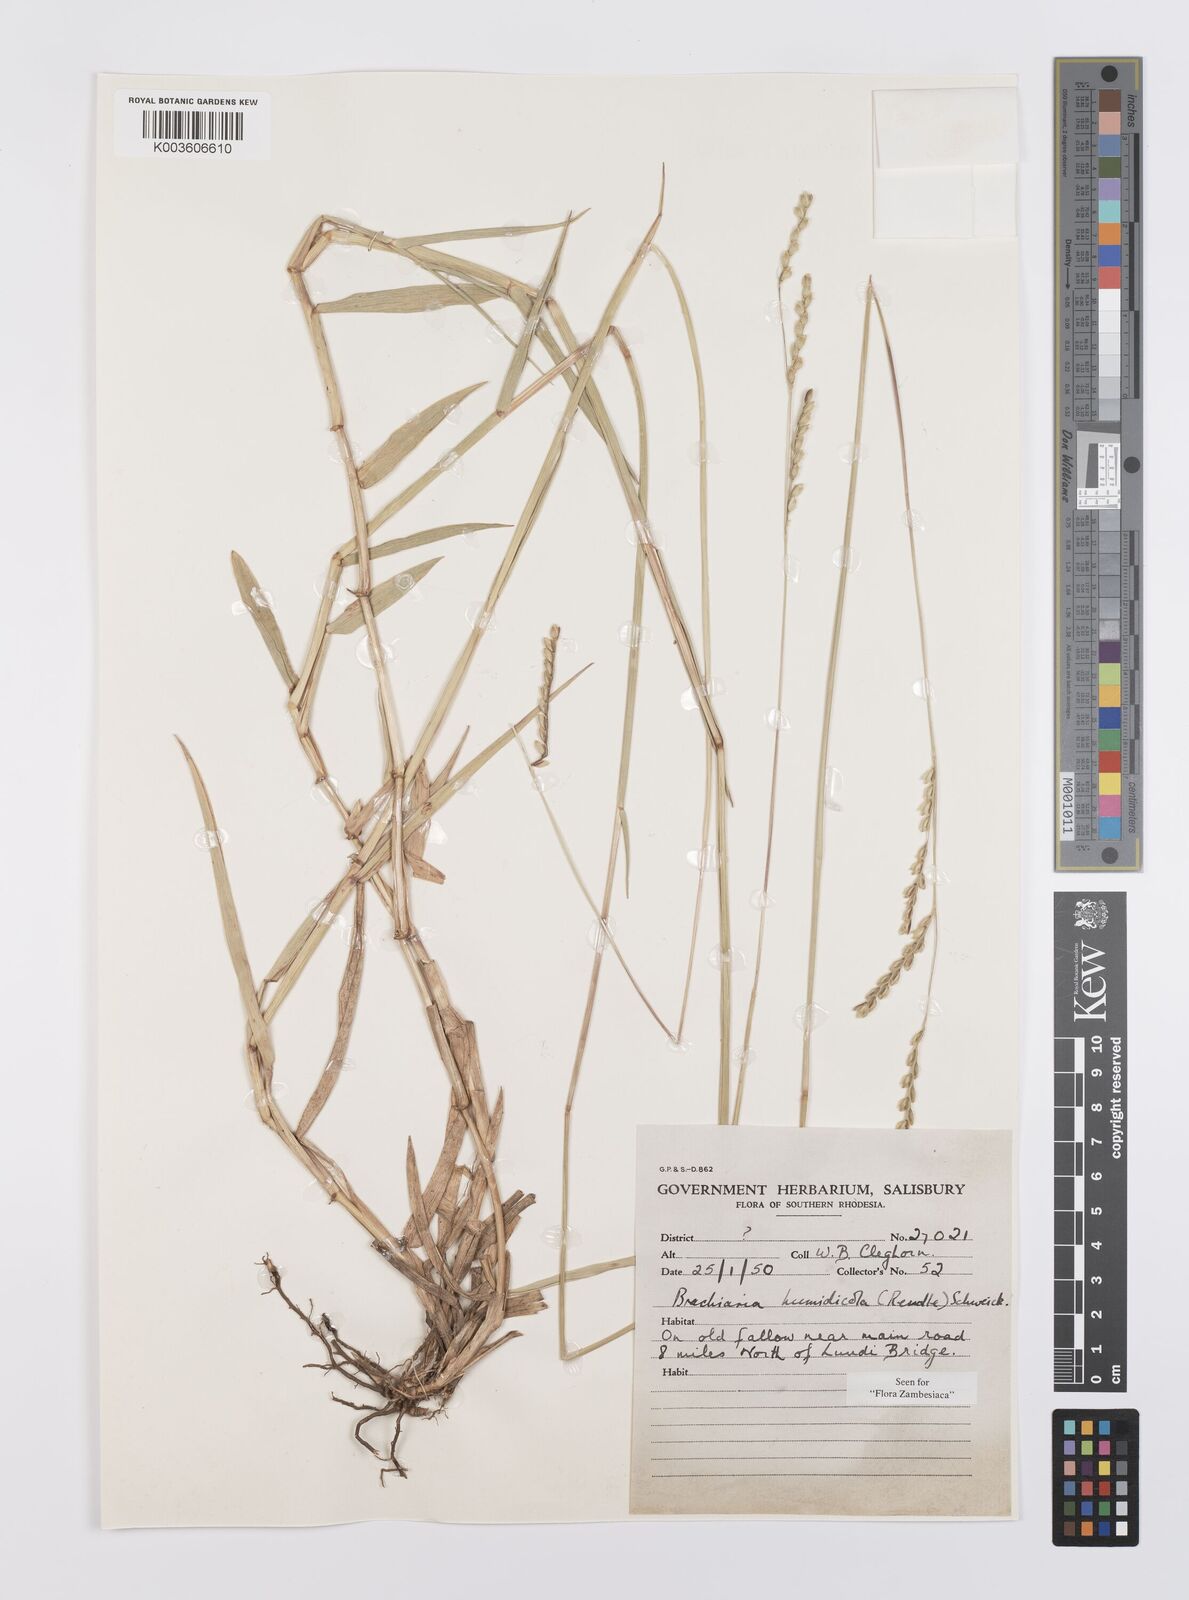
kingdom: Plantae
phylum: Tracheophyta
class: Liliopsida
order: Poales
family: Poaceae
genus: Urochloa
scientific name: Urochloa dictyoneura
